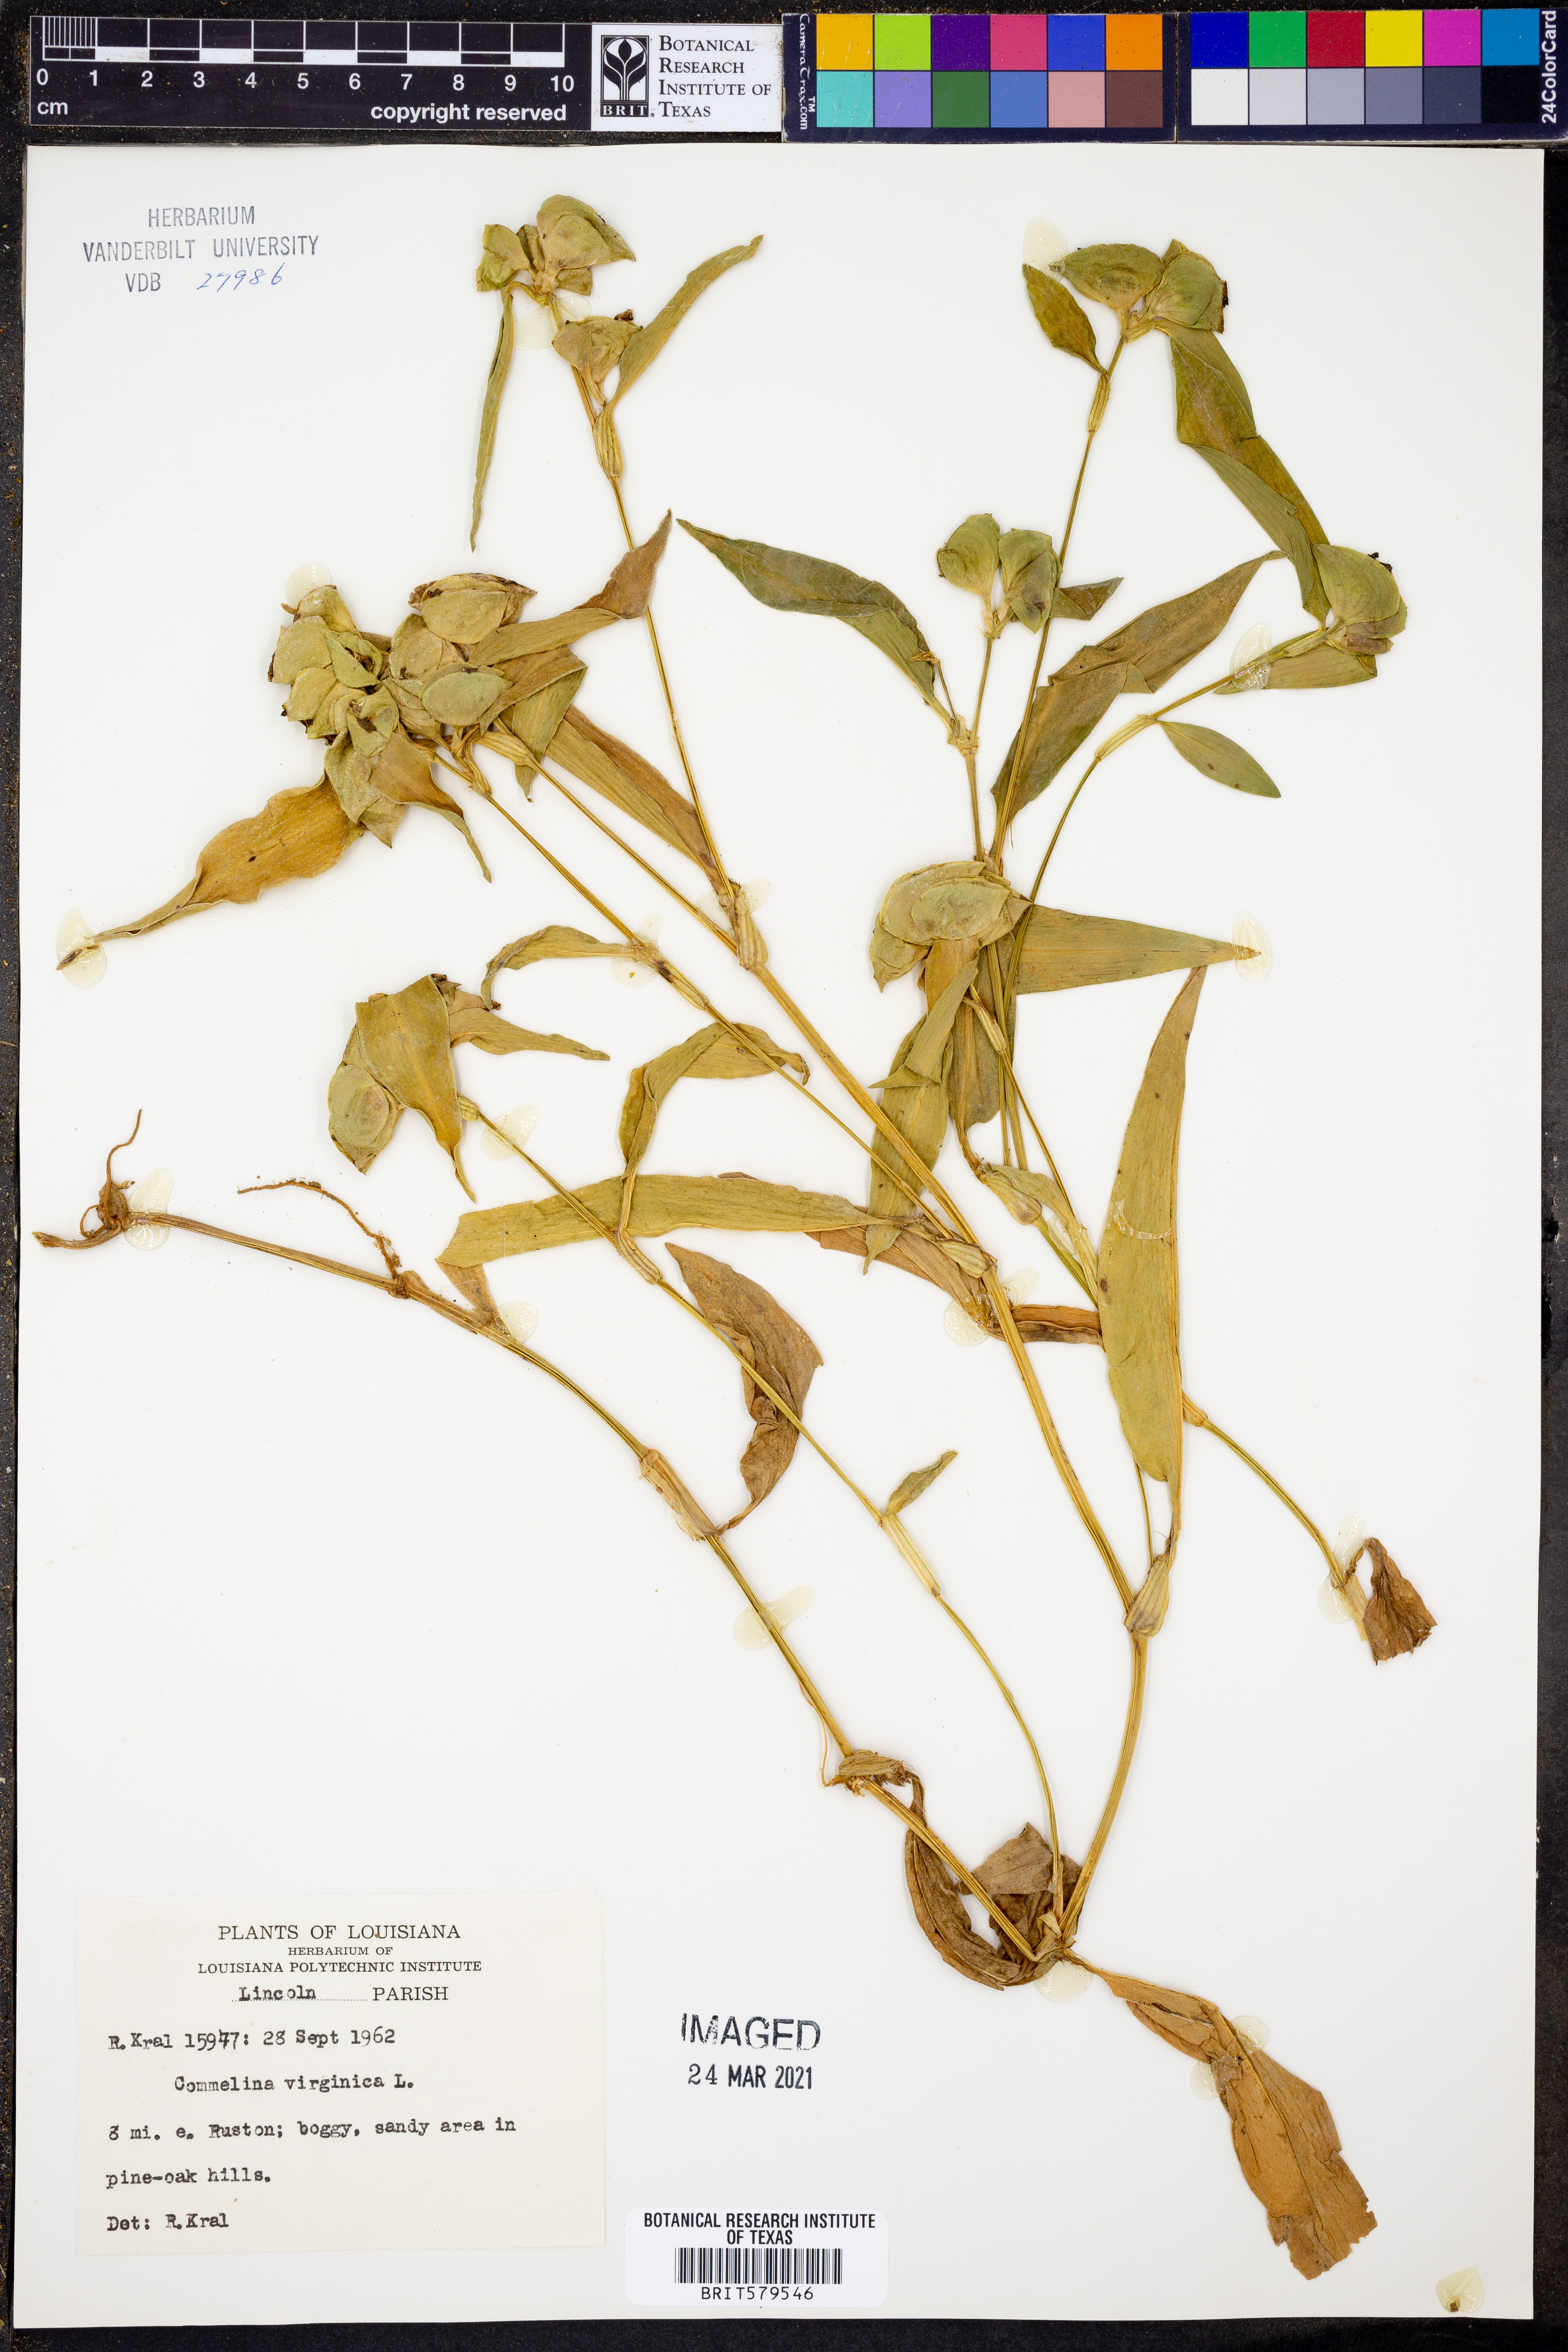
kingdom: Plantae
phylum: Tracheophyta
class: Liliopsida
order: Commelinales
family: Commelinaceae
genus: Commelina
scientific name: Commelina virginica
